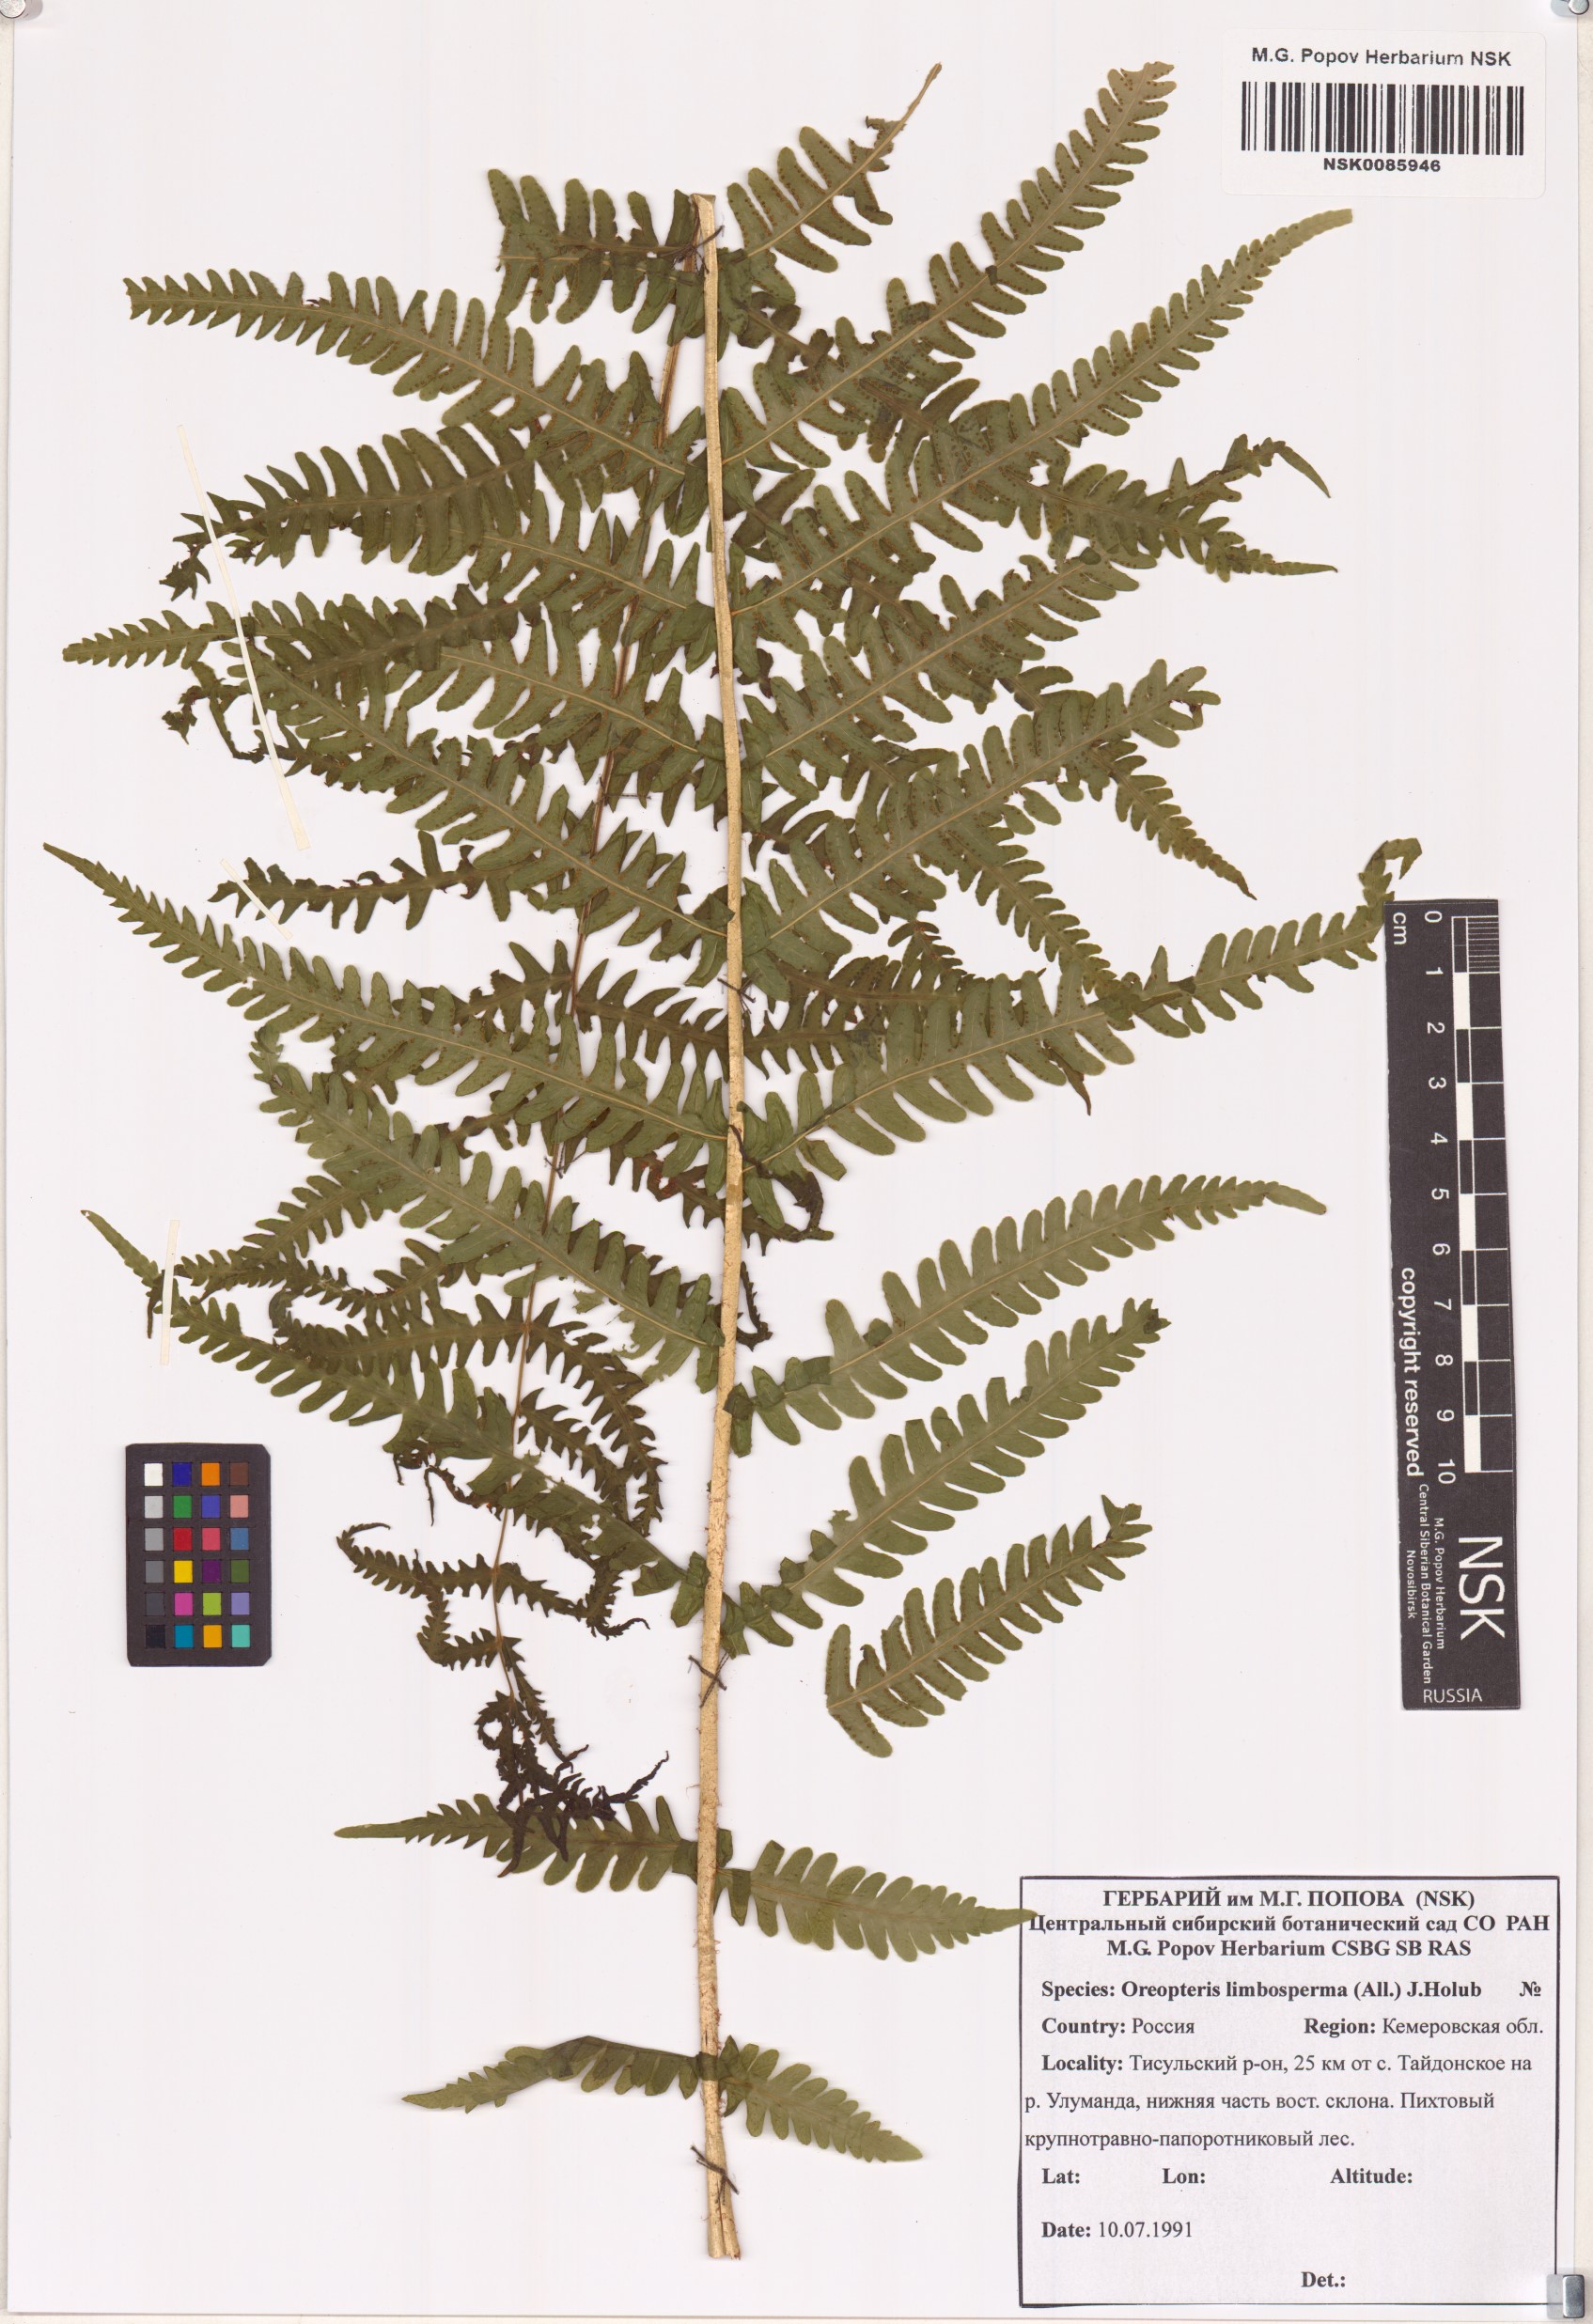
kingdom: Plantae
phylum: Tracheophyta
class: Polypodiopsida
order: Polypodiales
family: Thelypteridaceae
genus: Oreopteris
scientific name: Oreopteris limbosperma
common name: Lemon-scented fern
